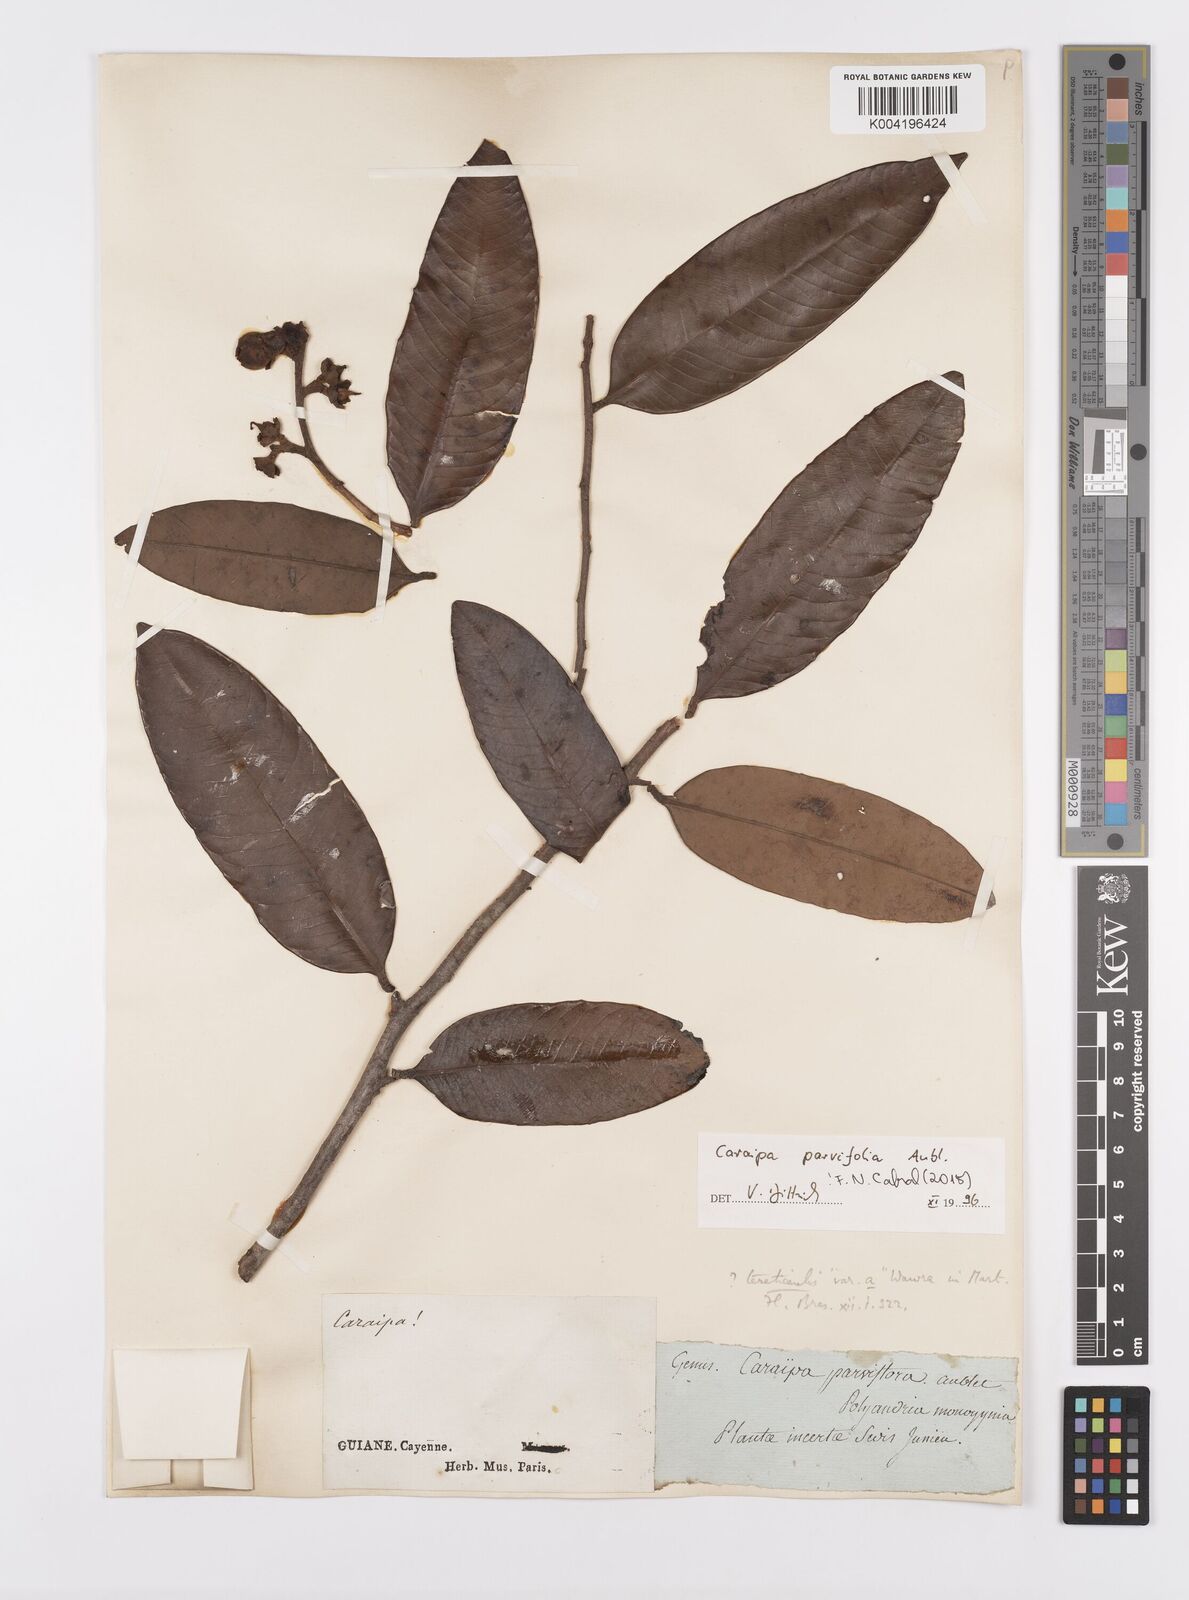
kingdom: Plantae
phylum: Tracheophyta
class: Magnoliopsida
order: Malpighiales
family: Calophyllaceae
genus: Caraipa
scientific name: Caraipa parvifolia
